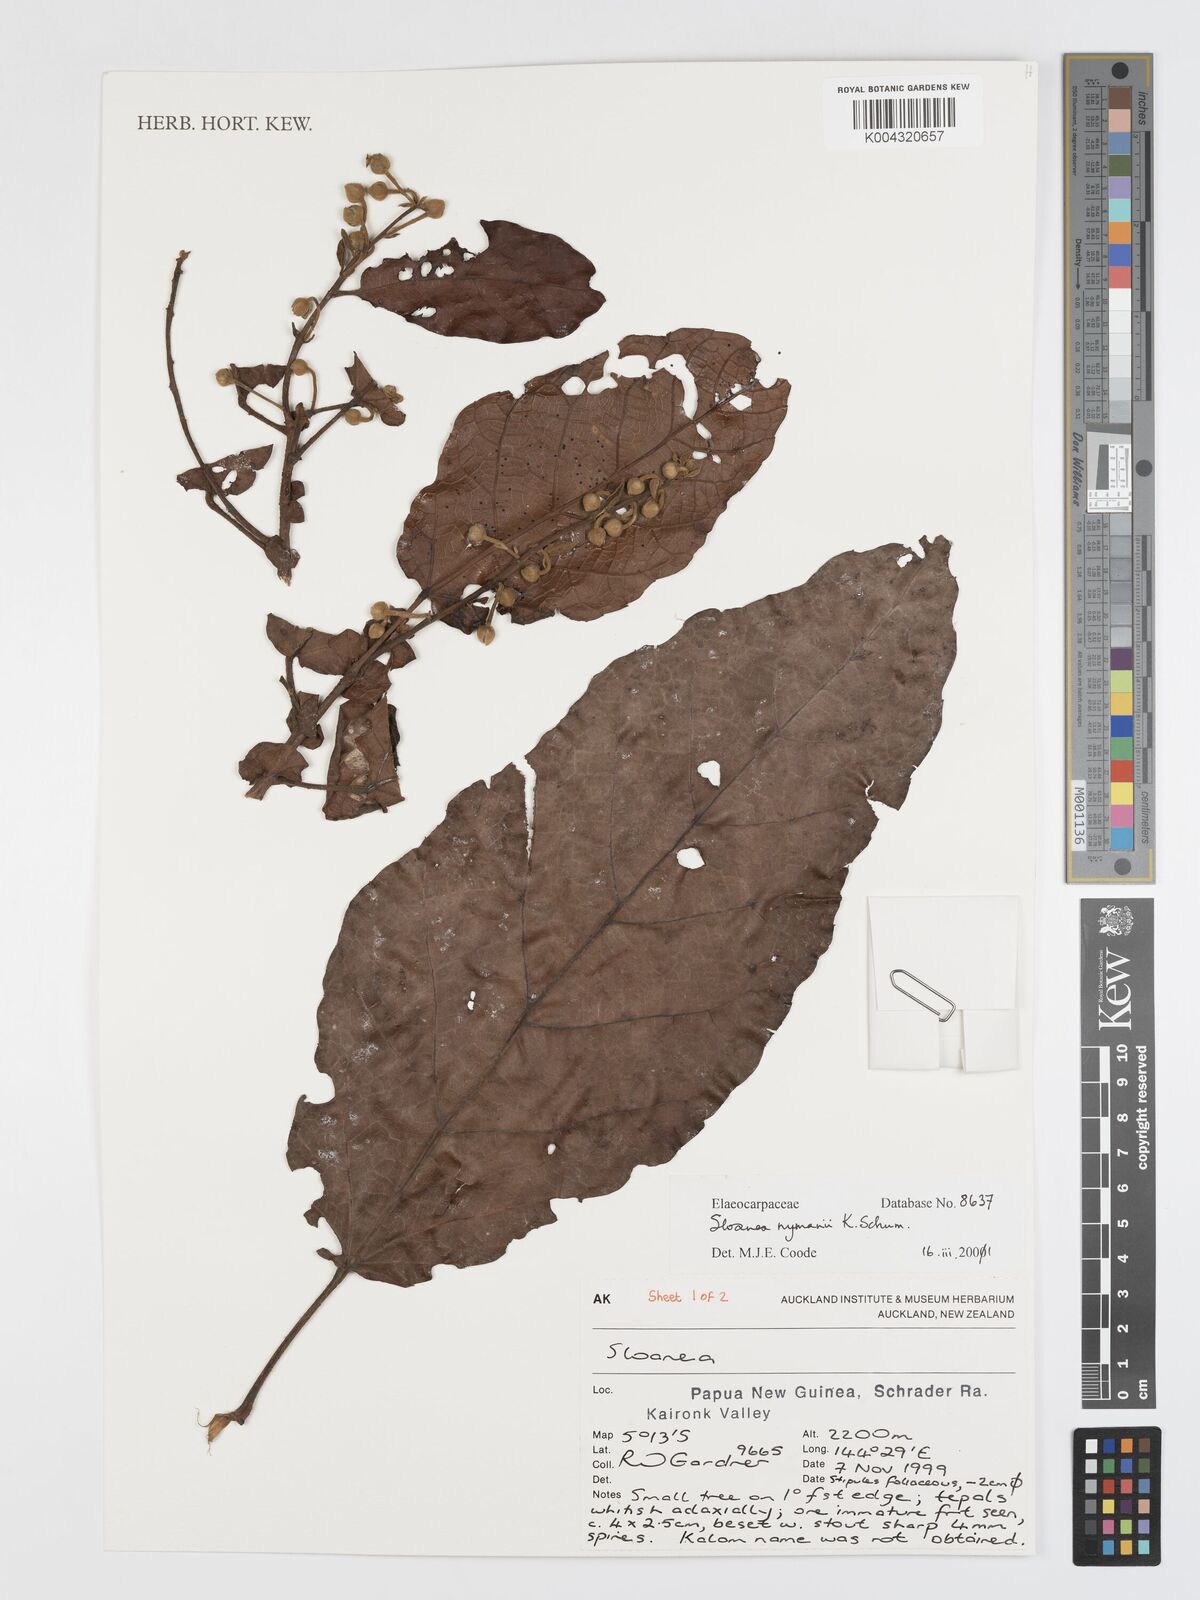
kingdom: Plantae
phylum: Tracheophyta
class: Magnoliopsida
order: Oxalidales
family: Elaeocarpaceae
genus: Sloanea
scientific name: Sloanea nymanii
